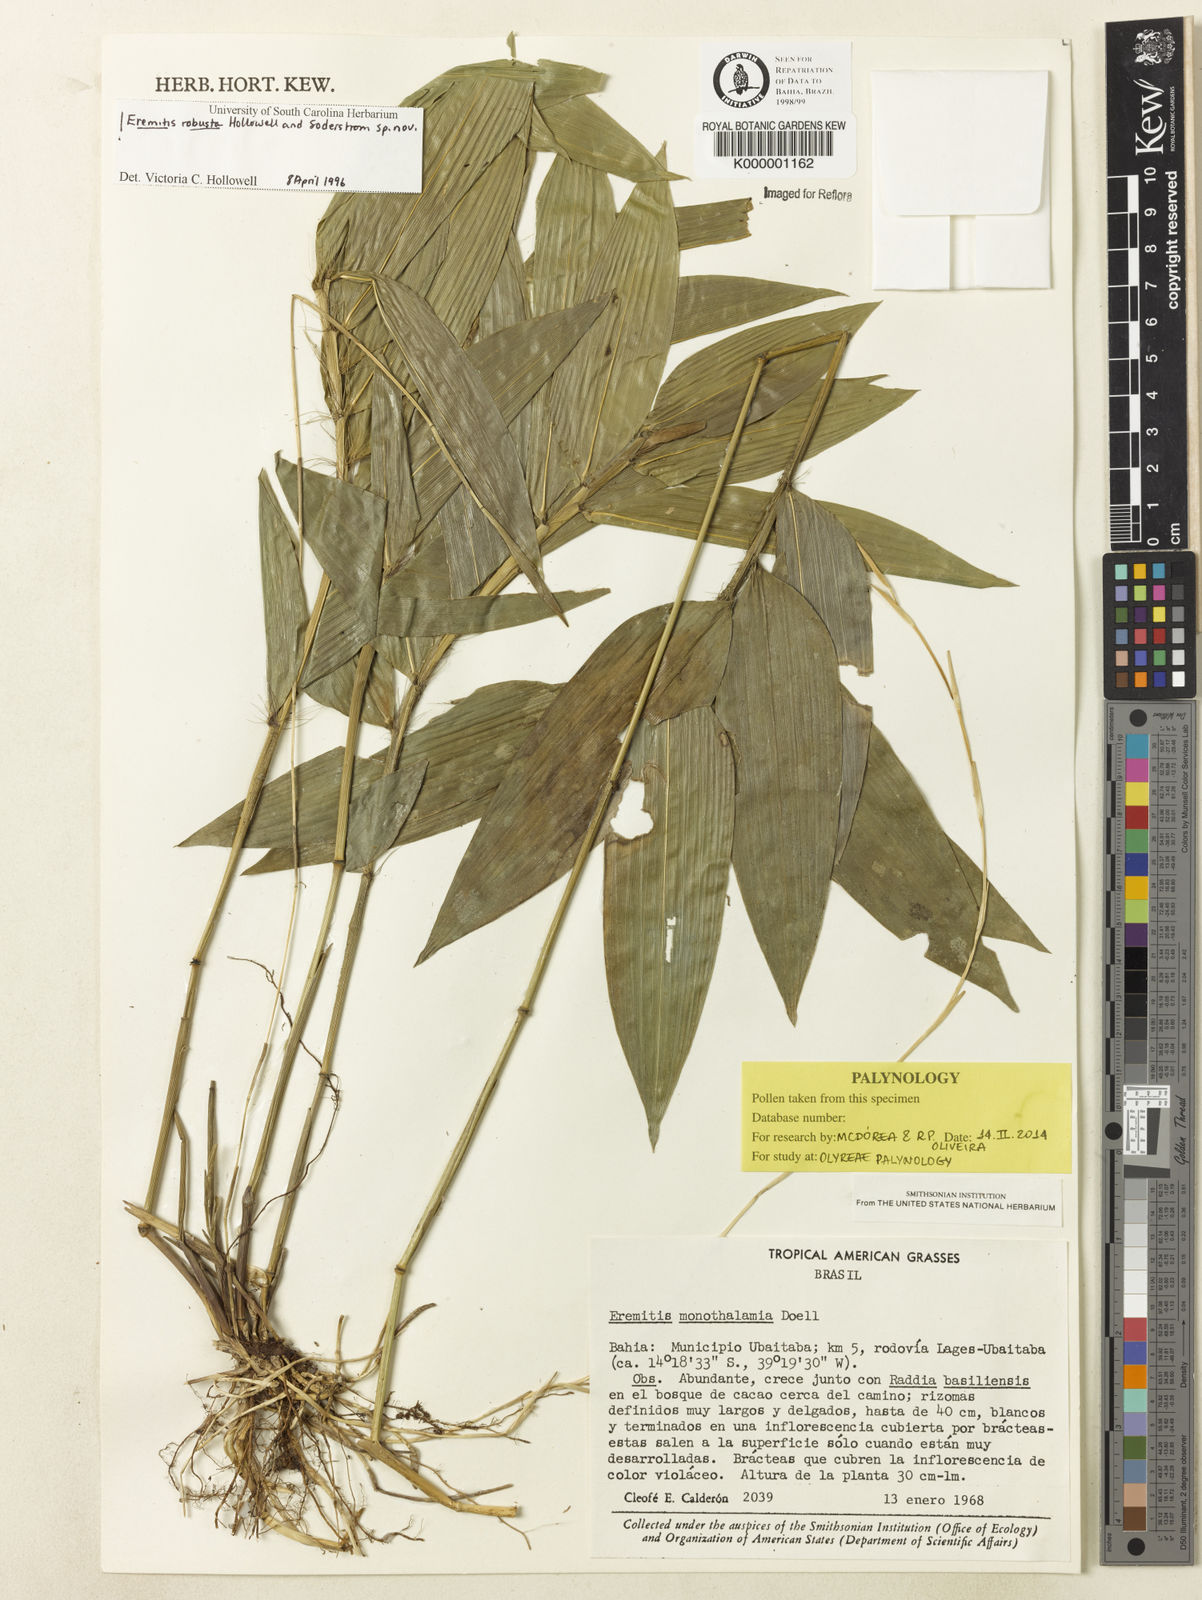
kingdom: Plantae
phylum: Tracheophyta
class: Liliopsida
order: Poales
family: Poaceae
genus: Eremitis
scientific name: Eremitis
